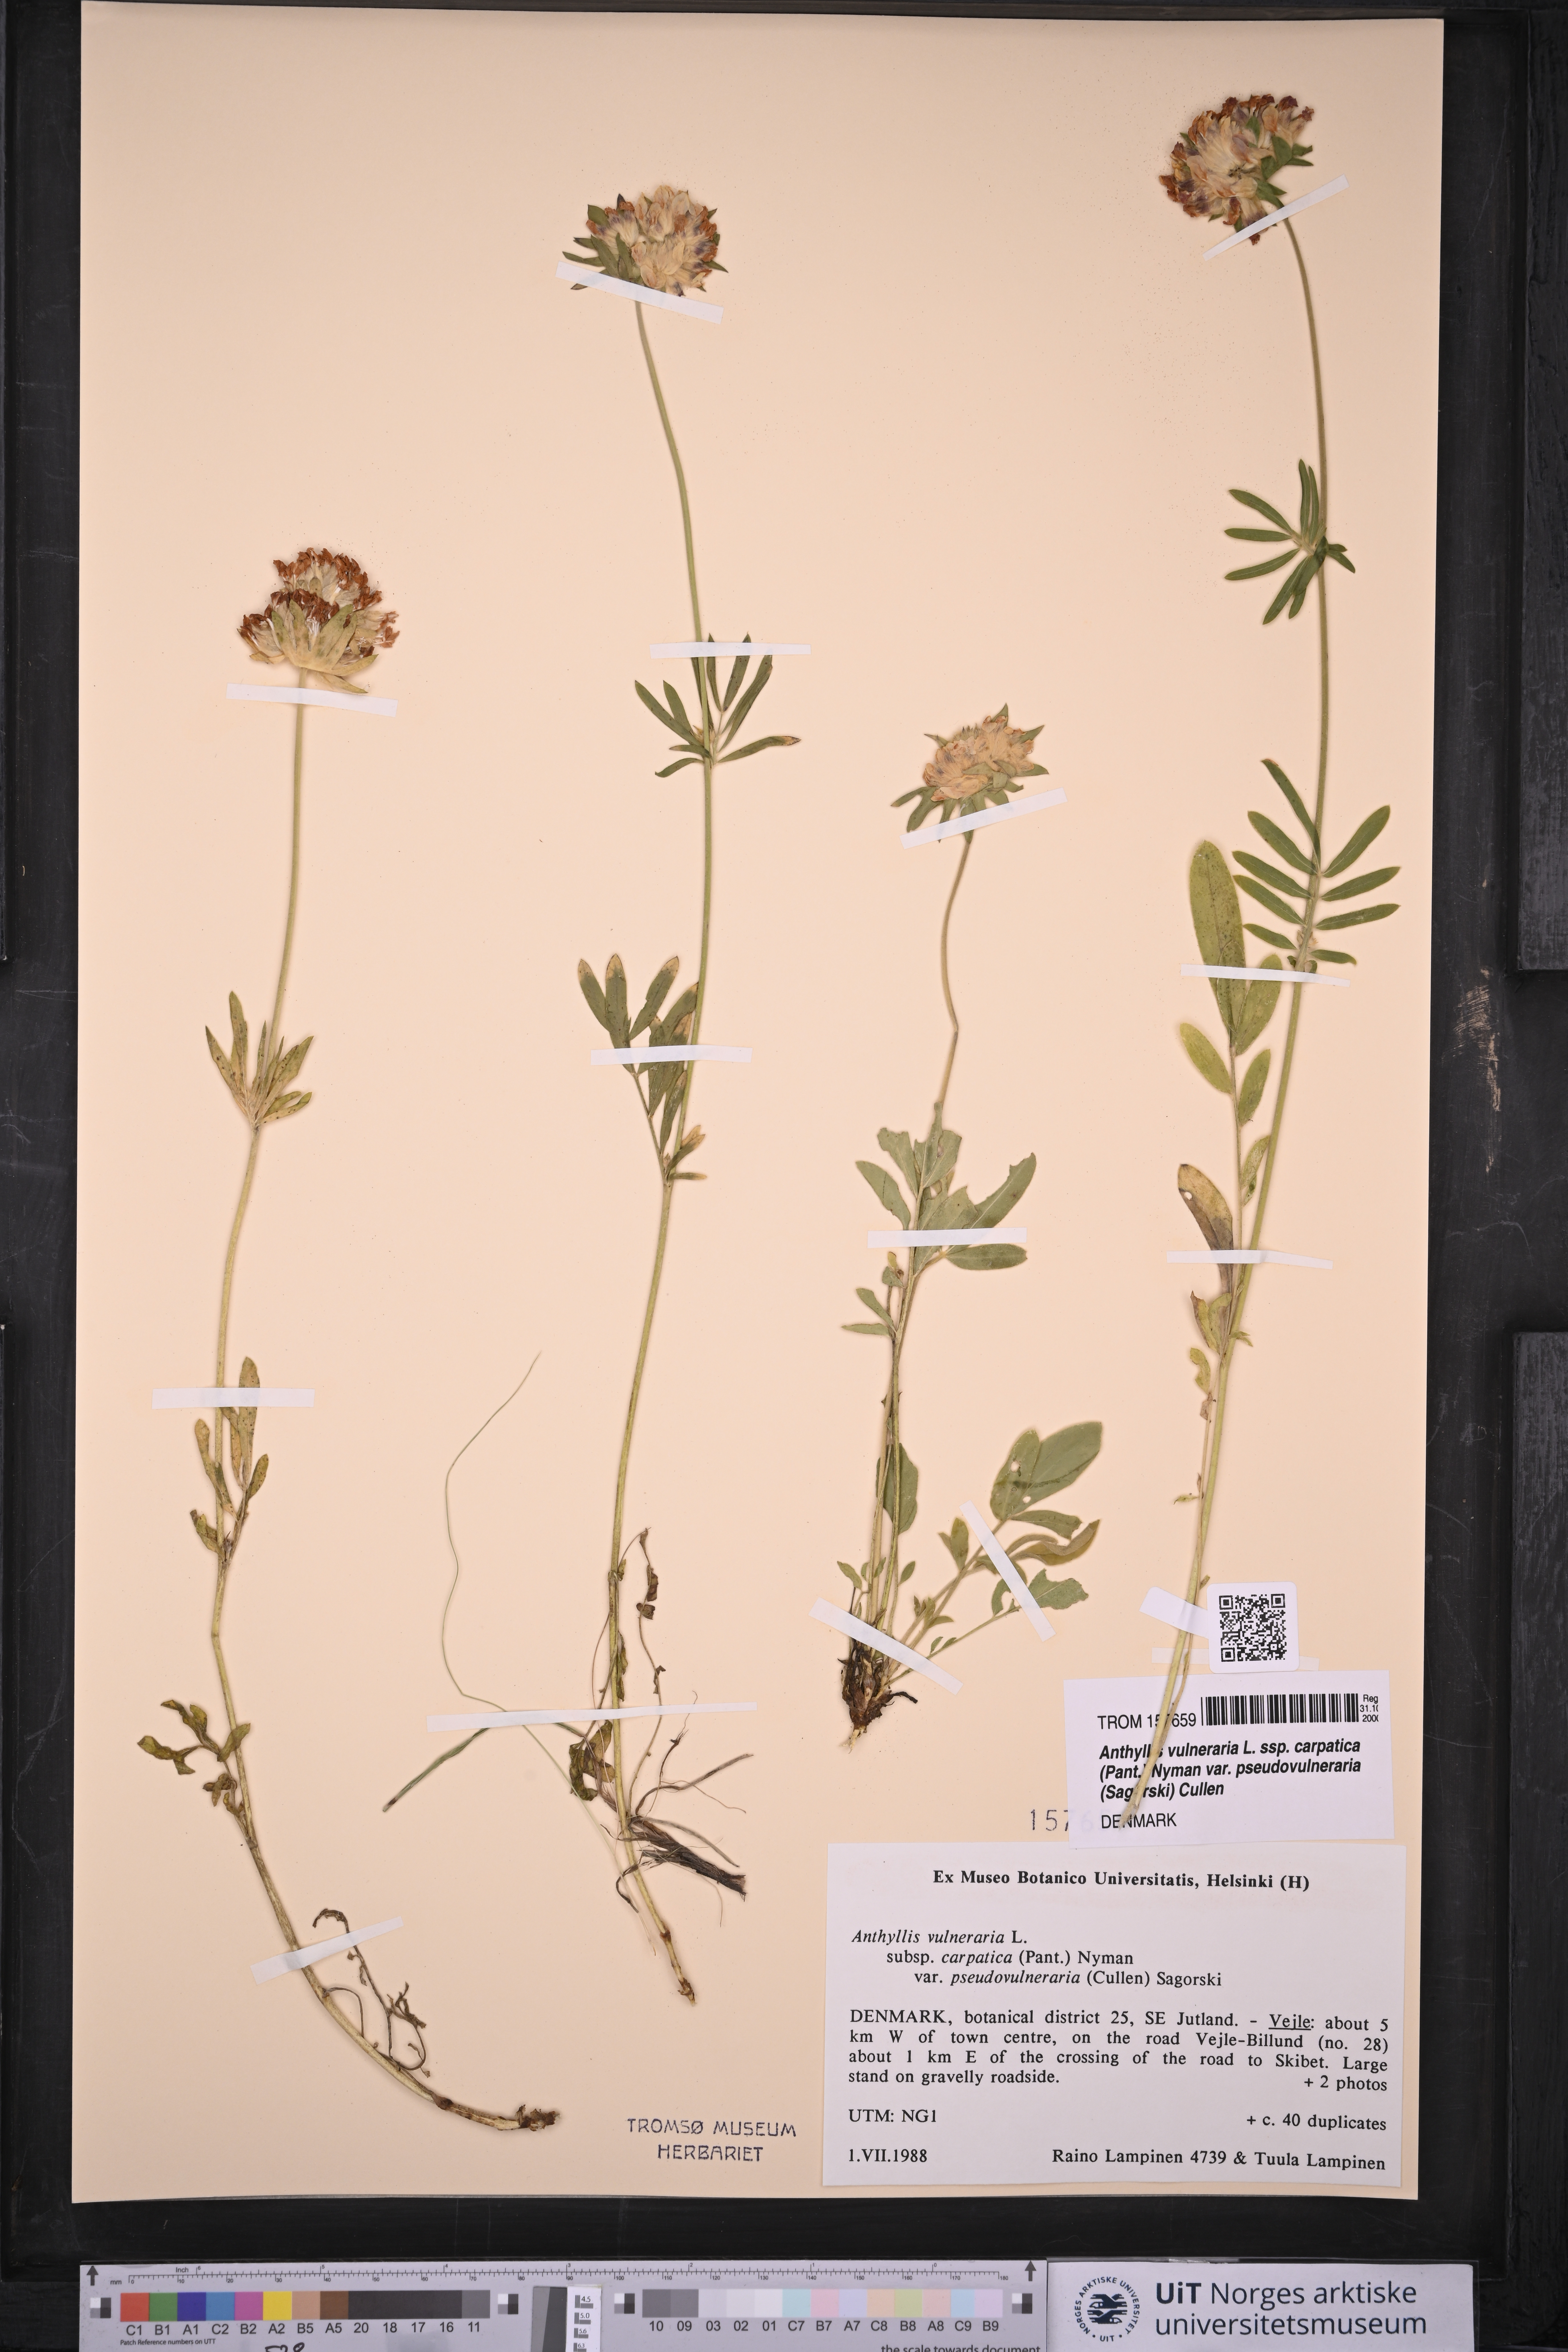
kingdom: Plantae
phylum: Tracheophyta
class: Magnoliopsida
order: Fabales
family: Fabaceae
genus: Anthyllis
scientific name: Anthyllis vulneraria
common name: Kidney vetch
